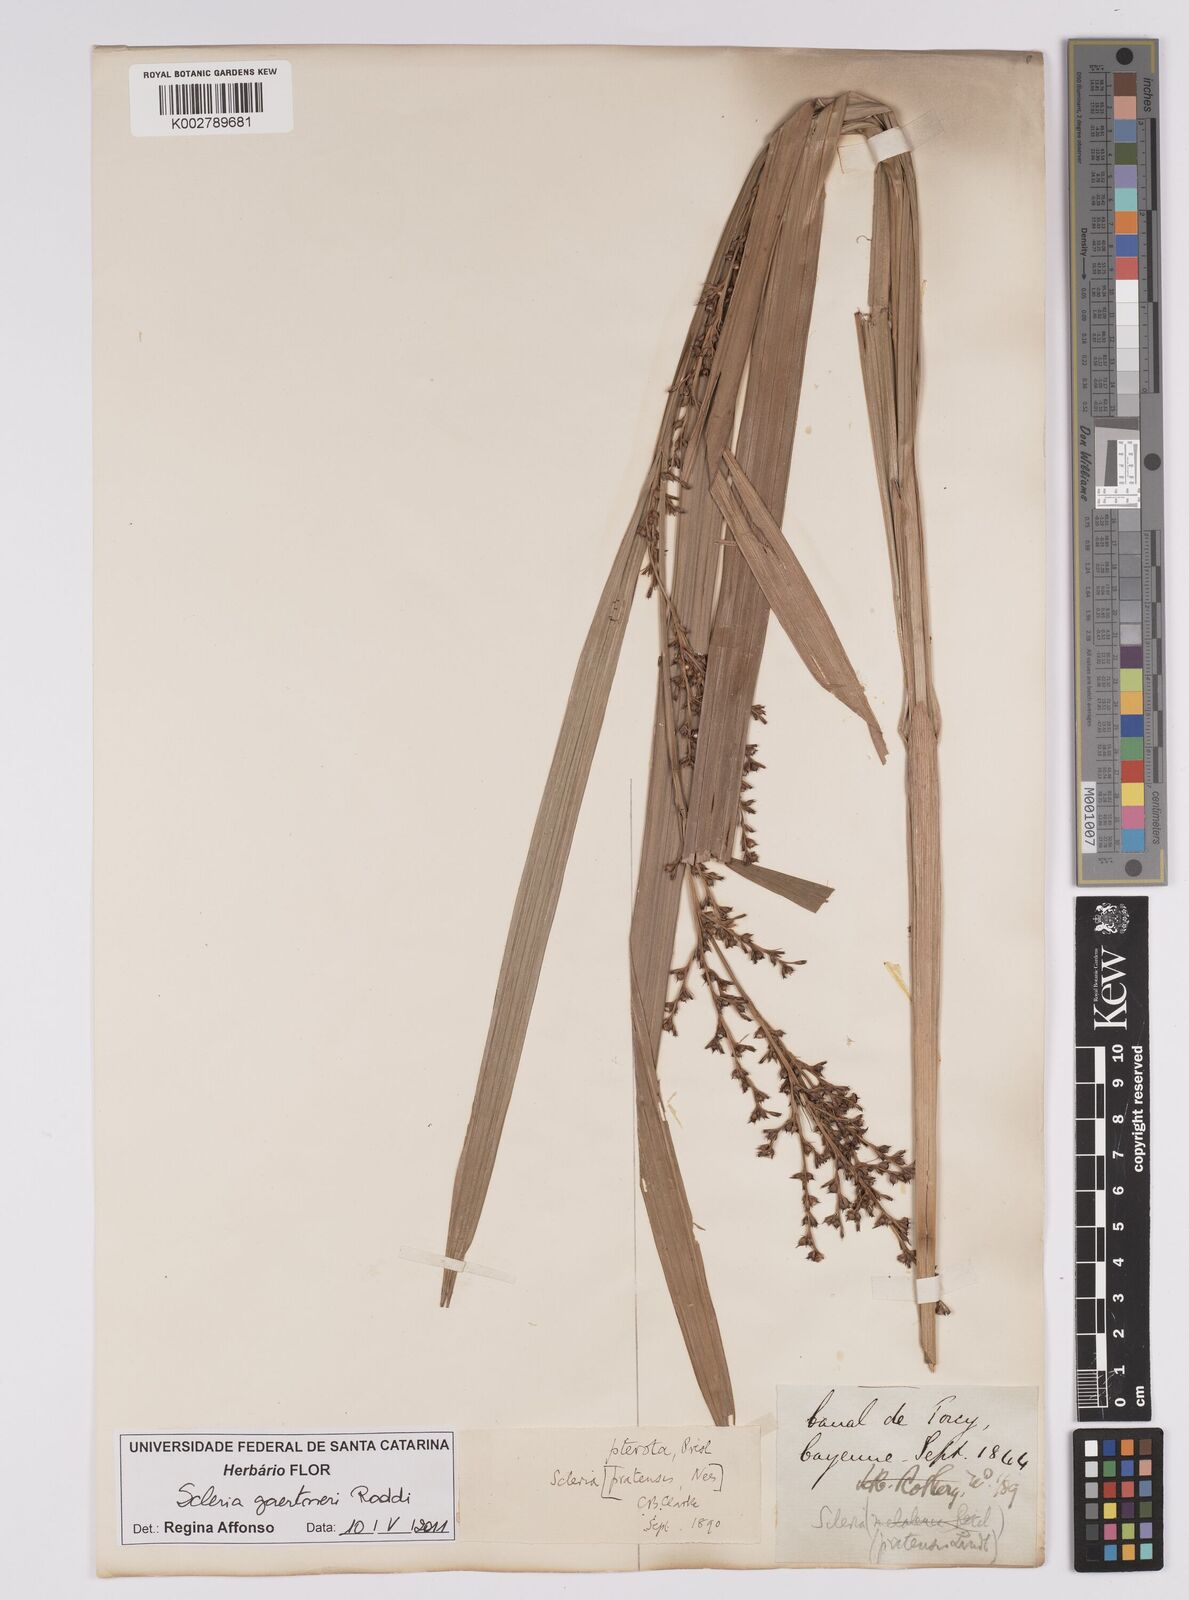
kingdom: Plantae
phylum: Tracheophyta
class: Liliopsida
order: Poales
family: Cyperaceae
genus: Scleria
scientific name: Scleria gaertneri
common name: Cortadera blanca
